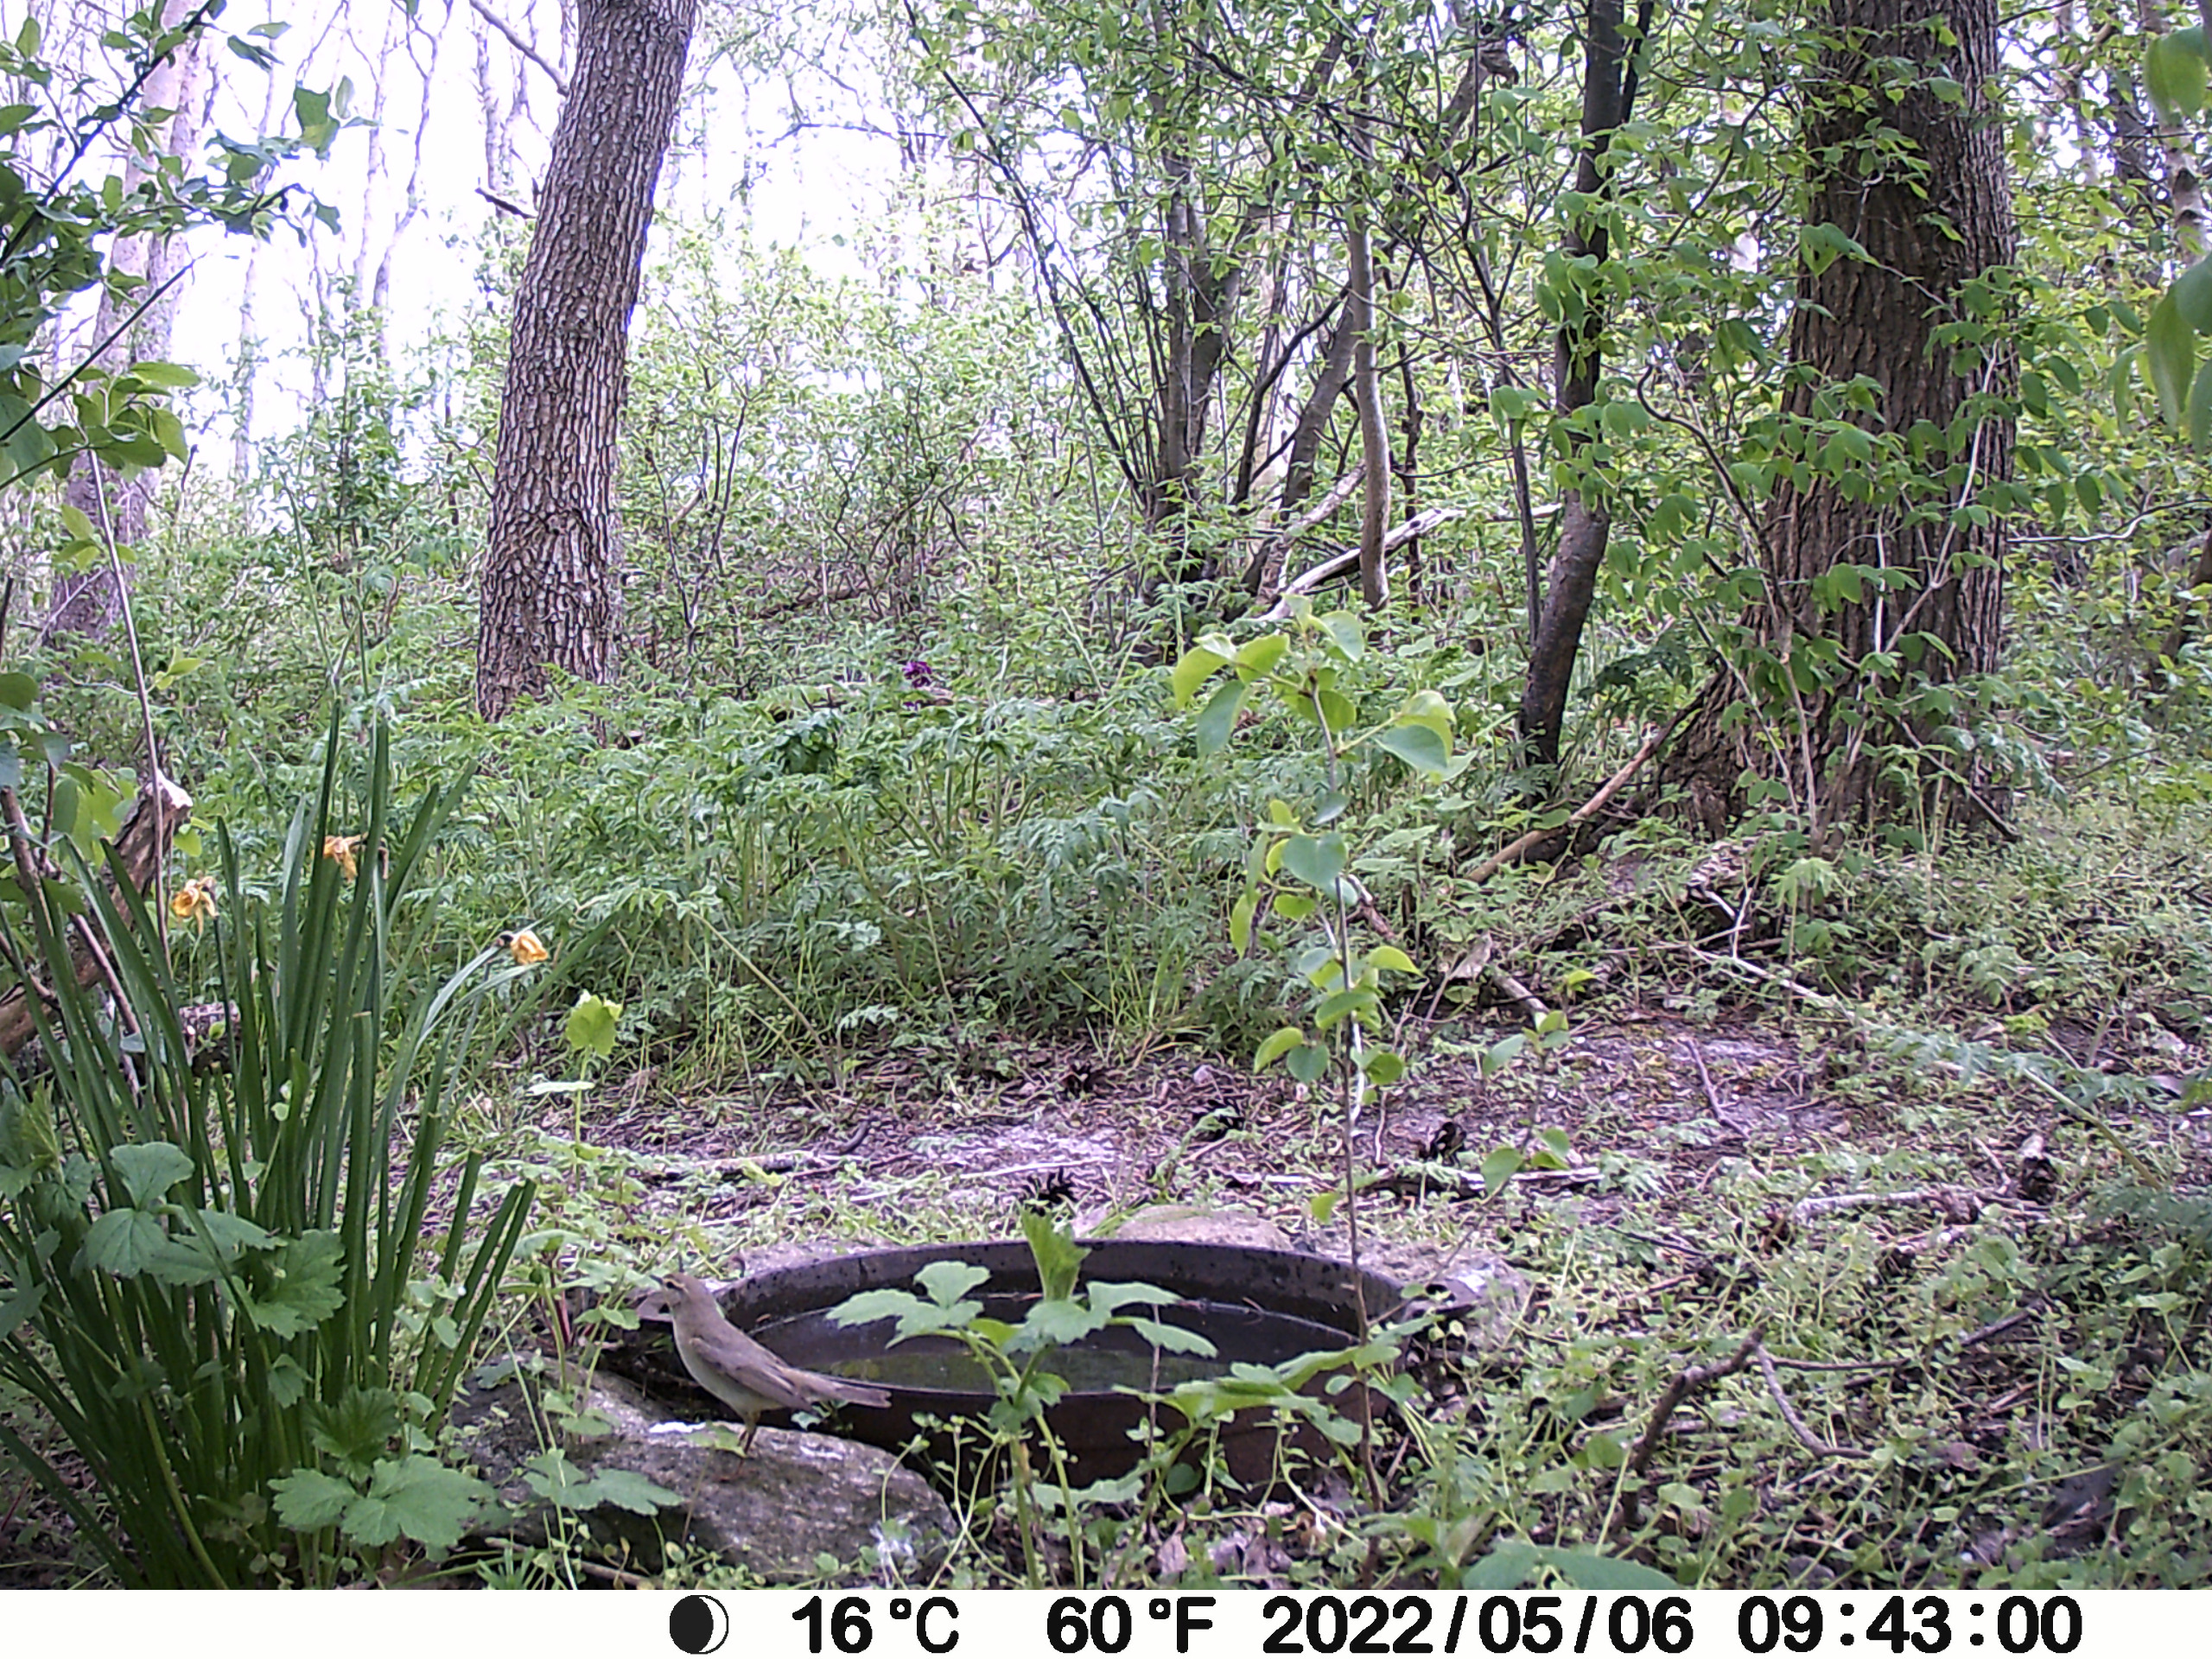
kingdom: Animalia
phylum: Chordata
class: Aves
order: Passeriformes
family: Phylloscopidae
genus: Phylloscopus
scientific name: Phylloscopus trochilus
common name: Løvsanger
